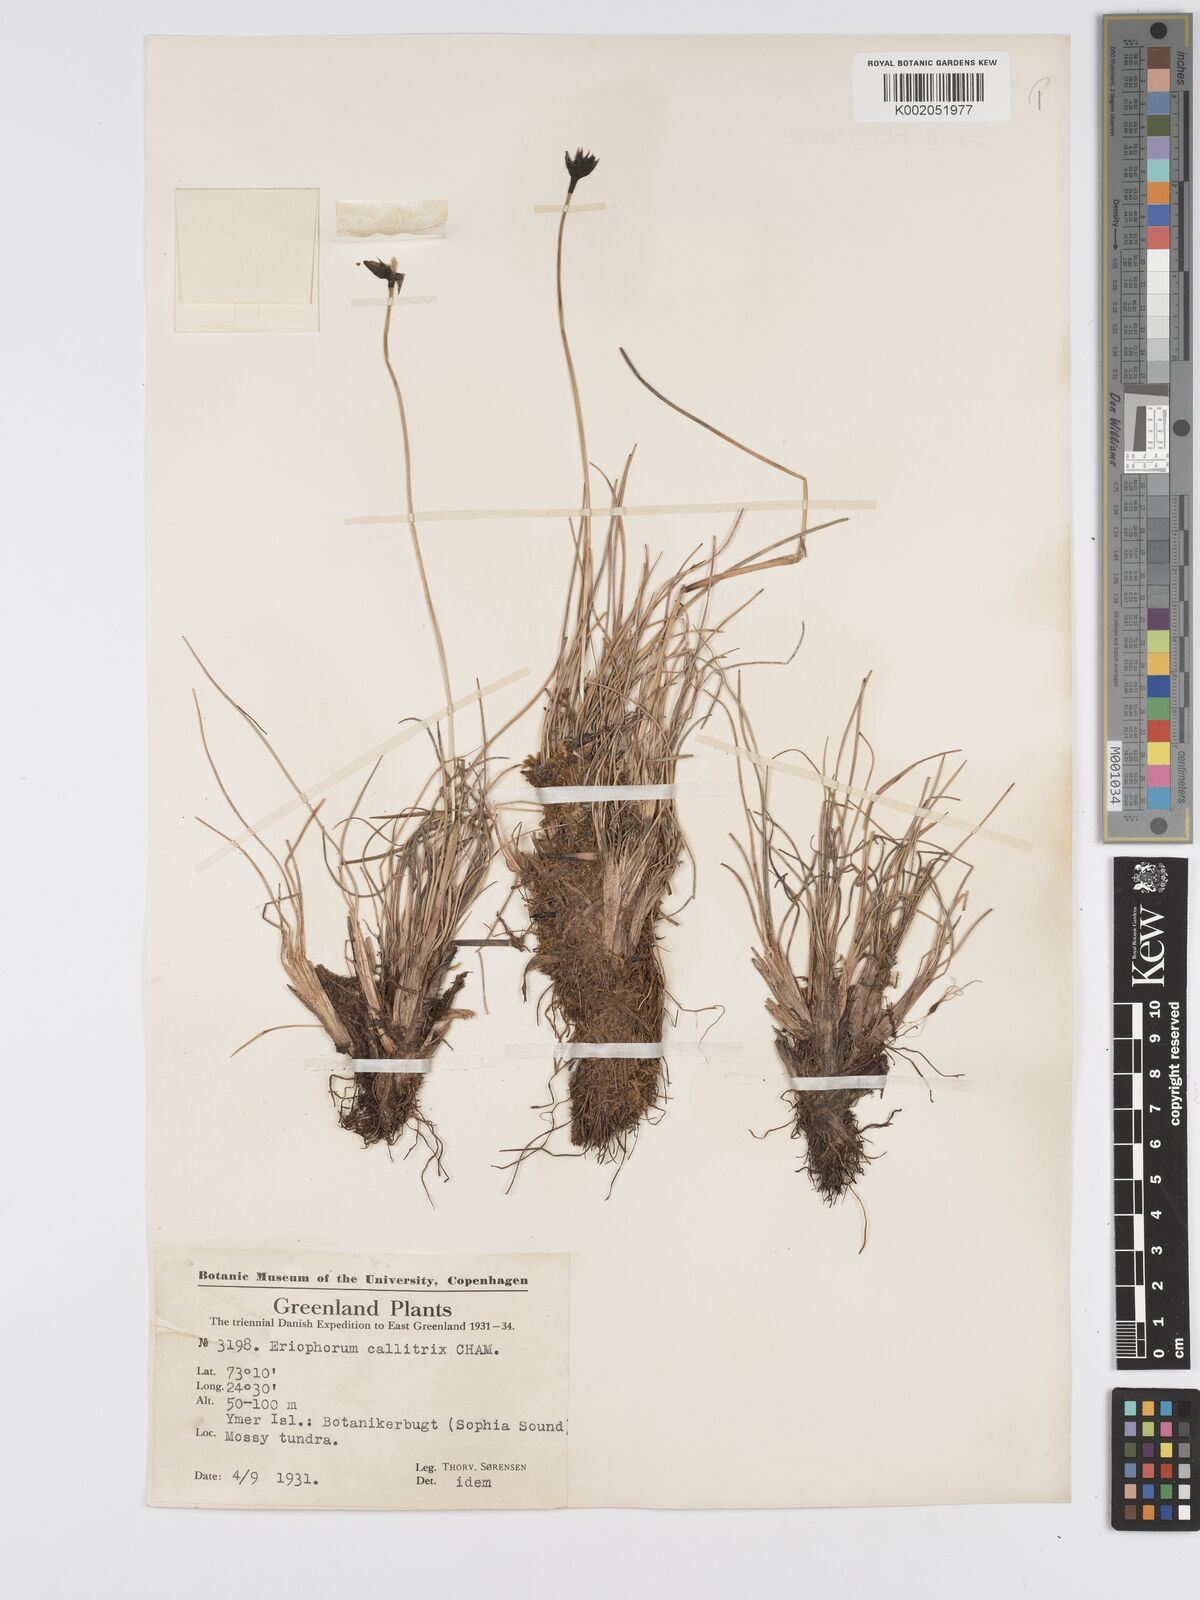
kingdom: Plantae
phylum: Tracheophyta
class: Liliopsida
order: Poales
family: Cyperaceae
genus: Eriophorum
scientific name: Eriophorum callitrix
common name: Arctic cottongrass
